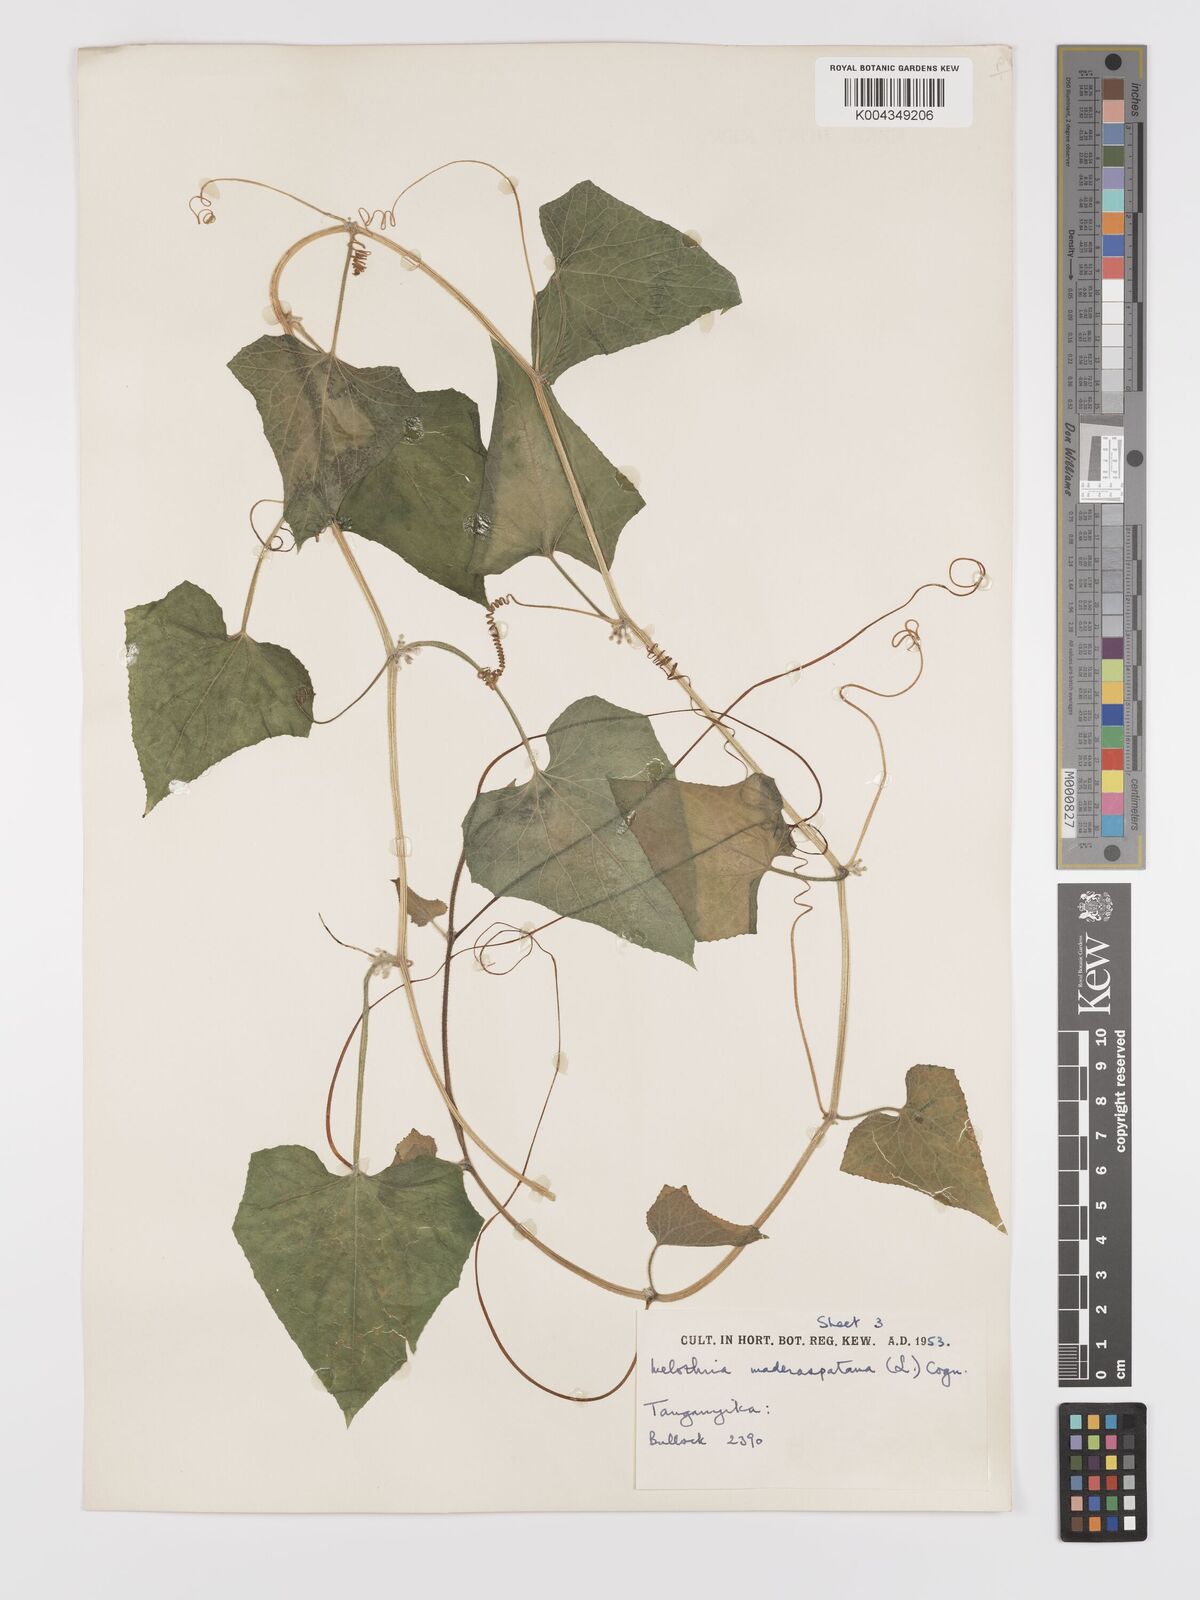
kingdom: Plantae
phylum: Tracheophyta
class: Magnoliopsida
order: Cucurbitales
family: Cucurbitaceae
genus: Cucumis
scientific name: Cucumis maderaspatanus
